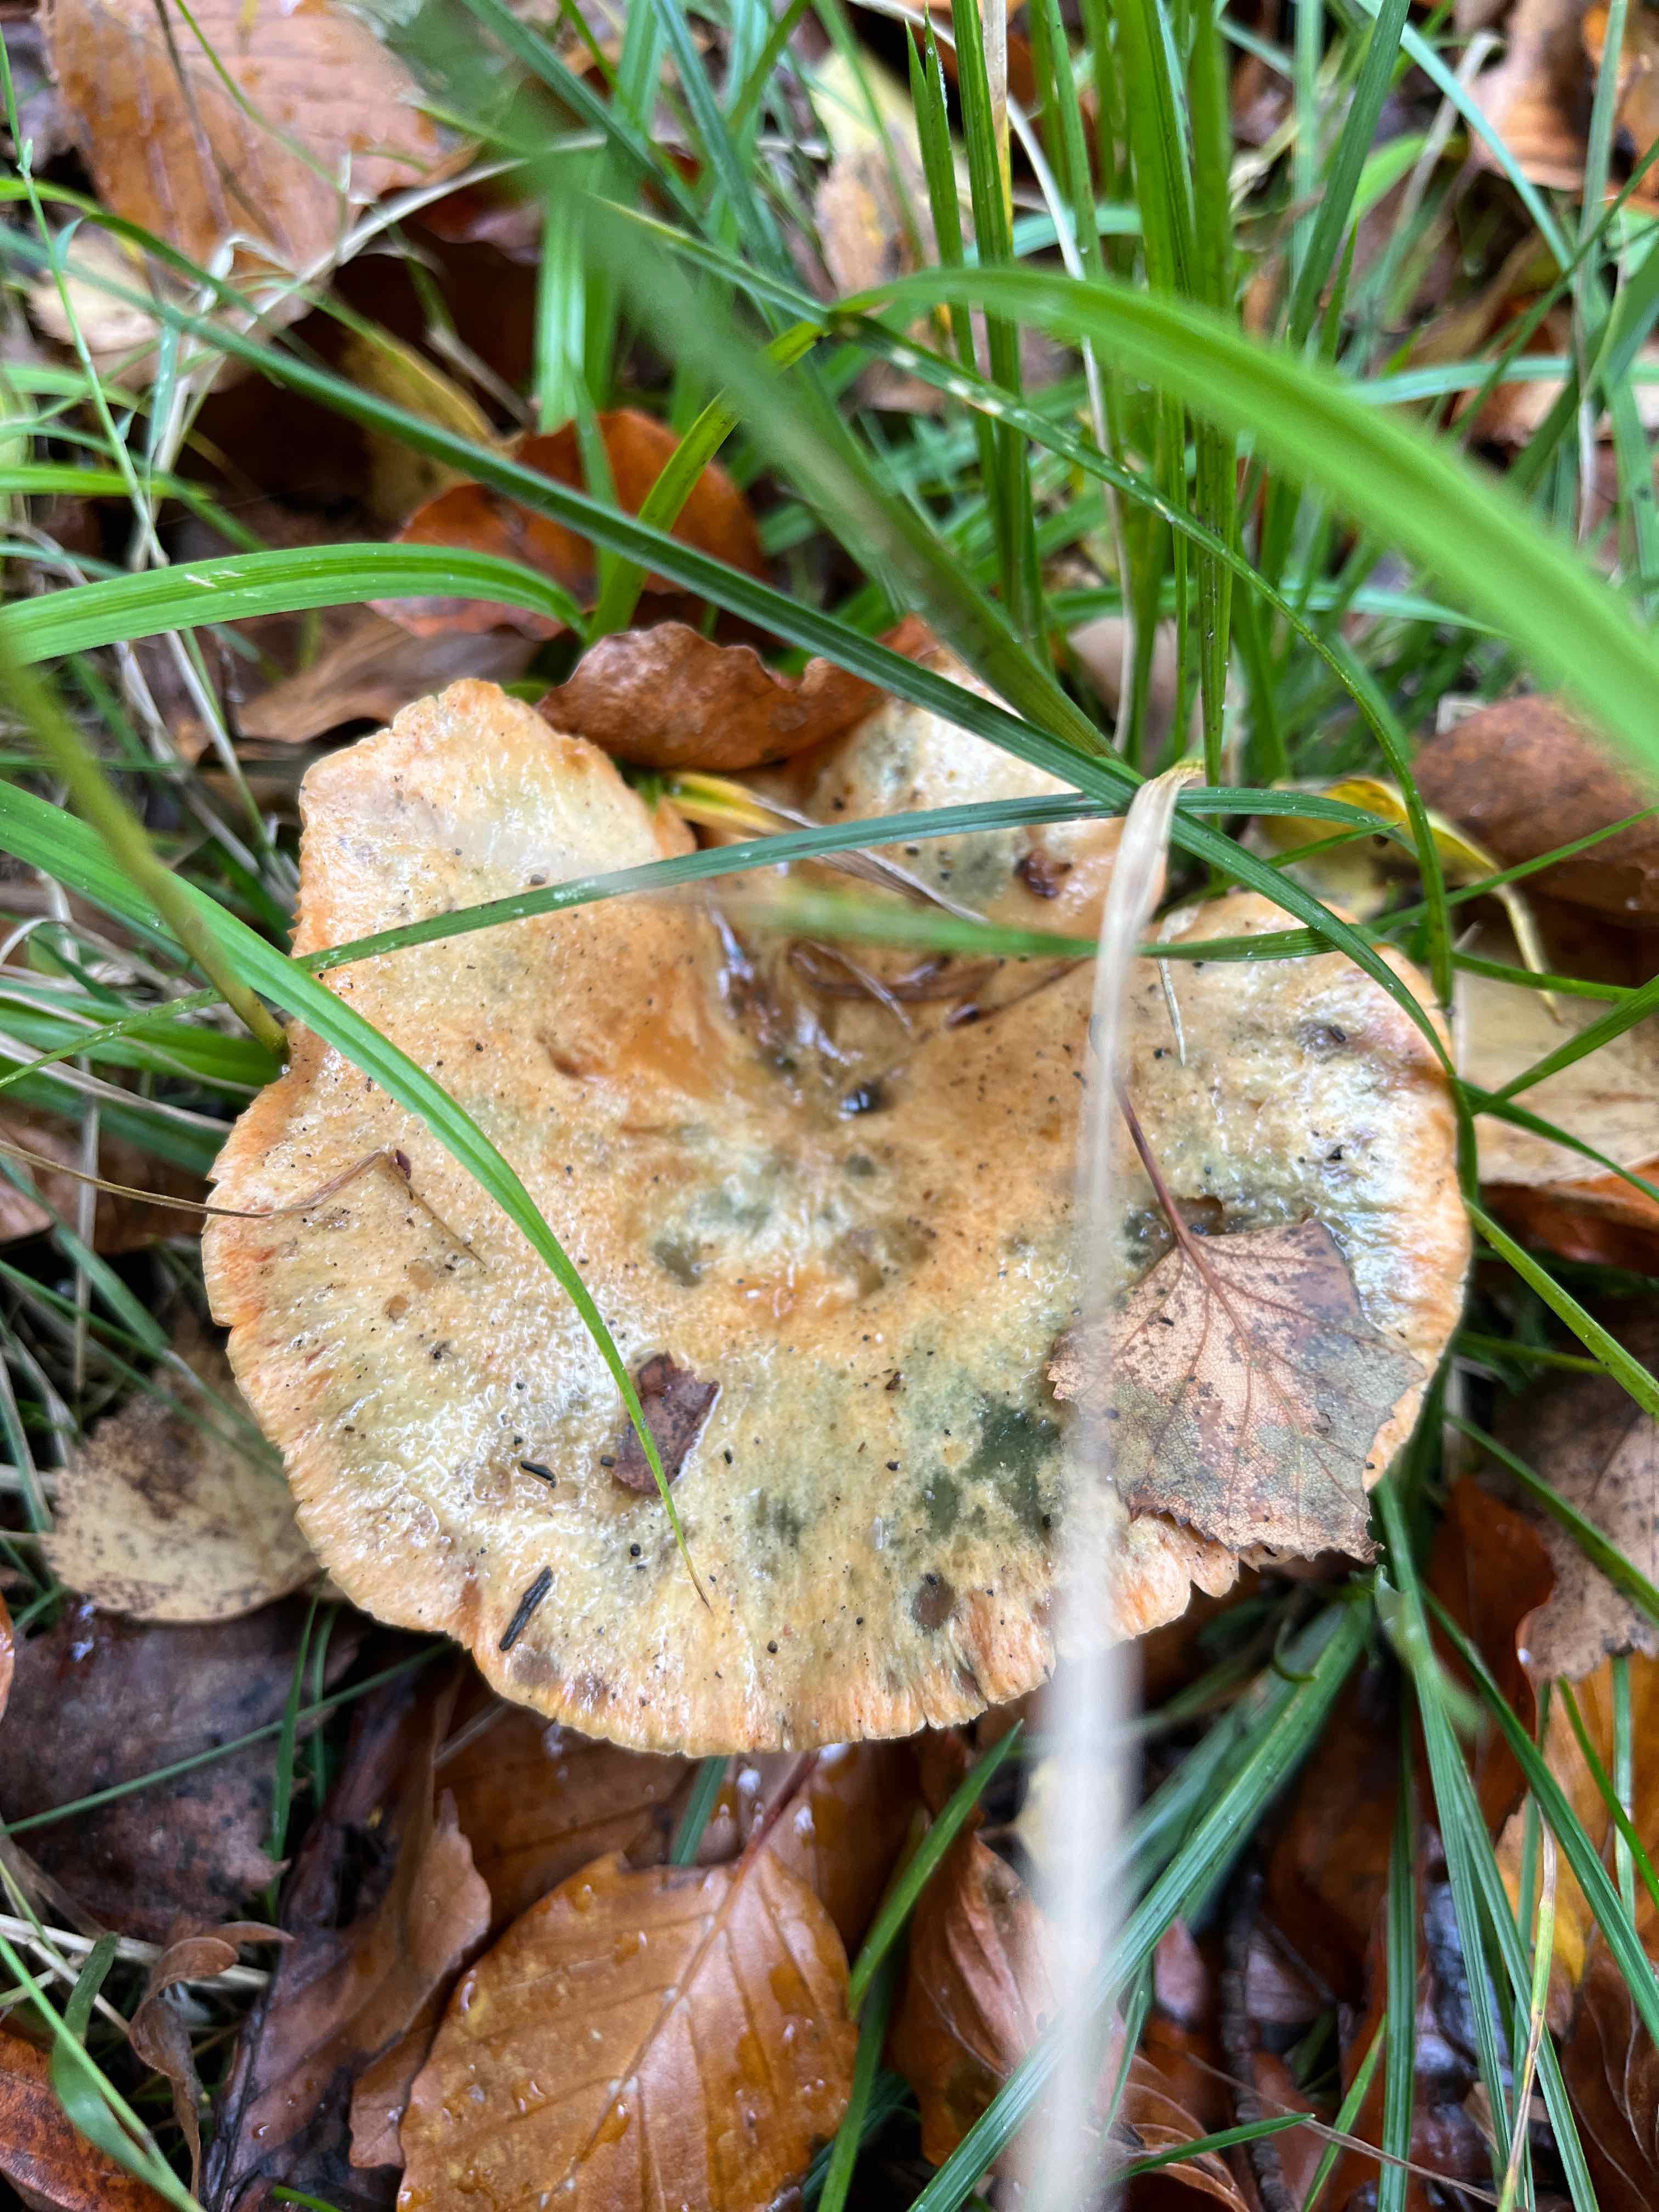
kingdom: Fungi
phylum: Basidiomycota
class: Agaricomycetes
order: Russulales
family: Russulaceae
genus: Lactarius
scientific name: Lactarius deterrimus
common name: gran-mælkehat
